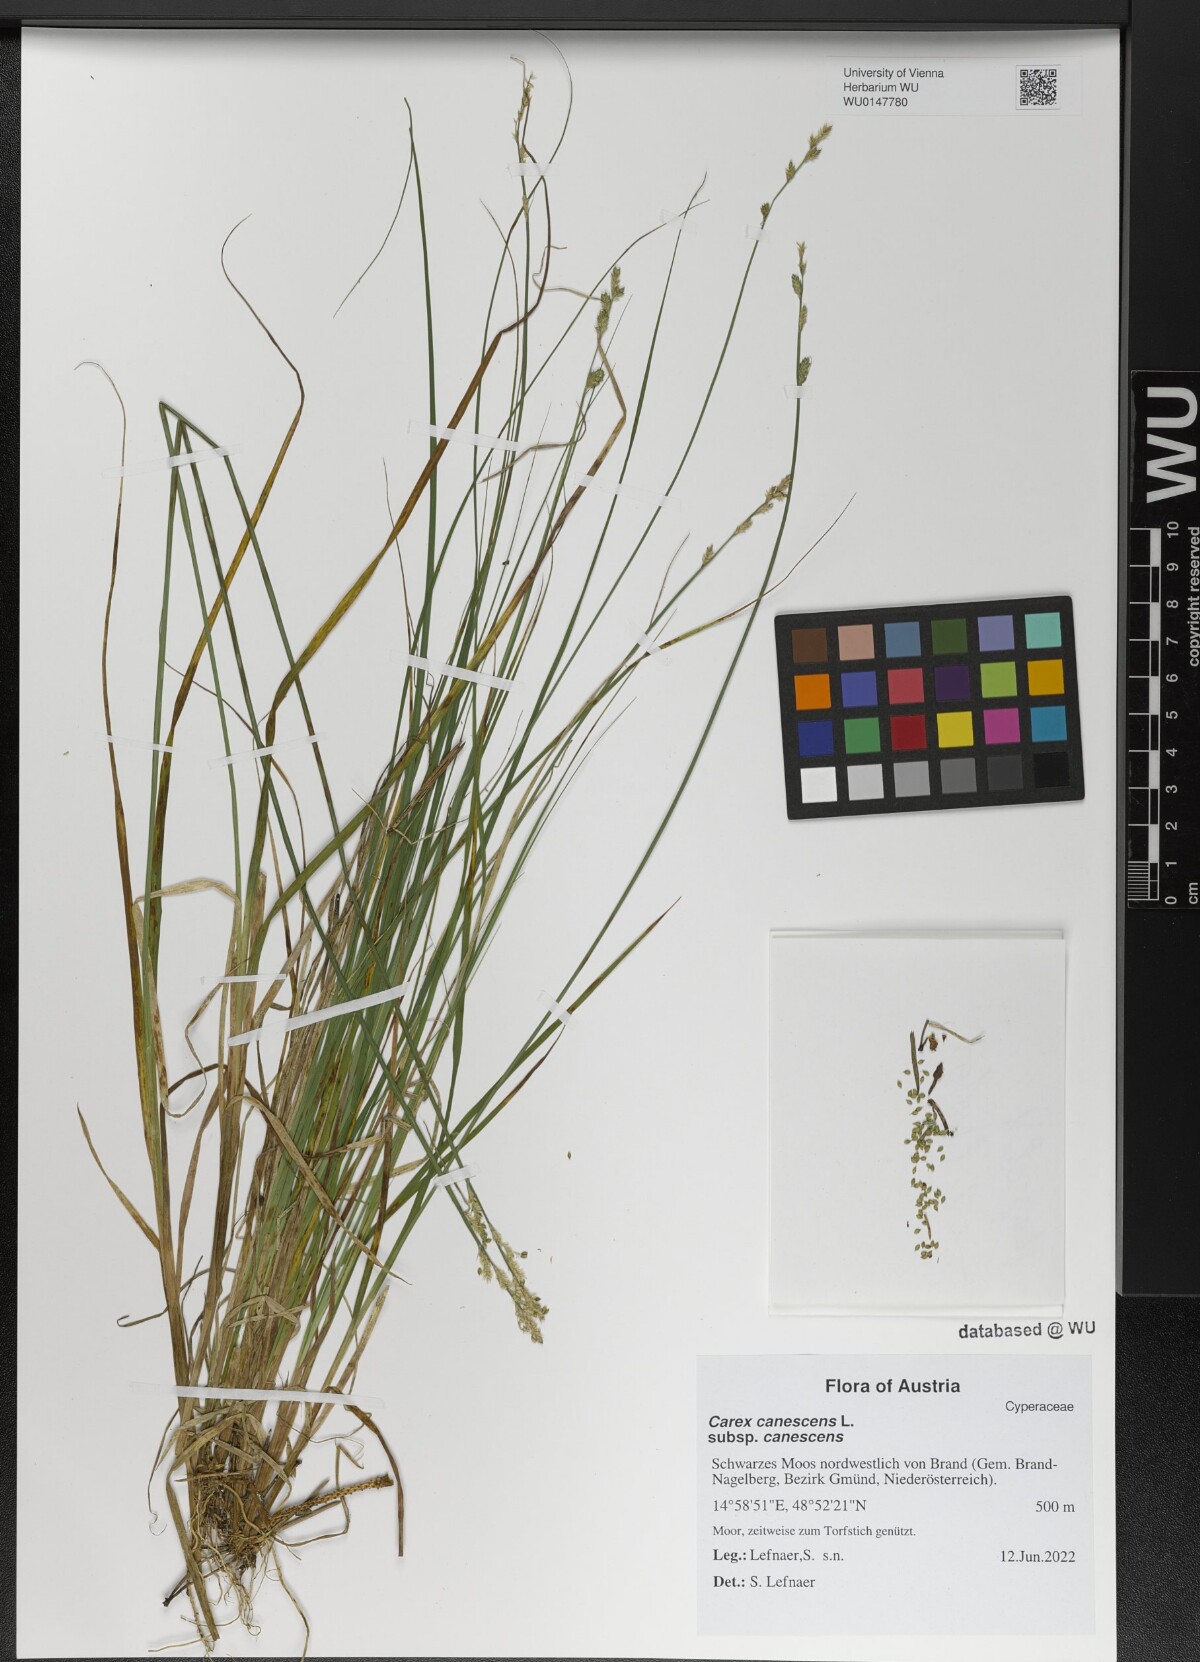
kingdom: Plantae
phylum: Tracheophyta
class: Liliopsida
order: Poales
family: Cyperaceae
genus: Carex
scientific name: Carex canescens
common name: White sedge
